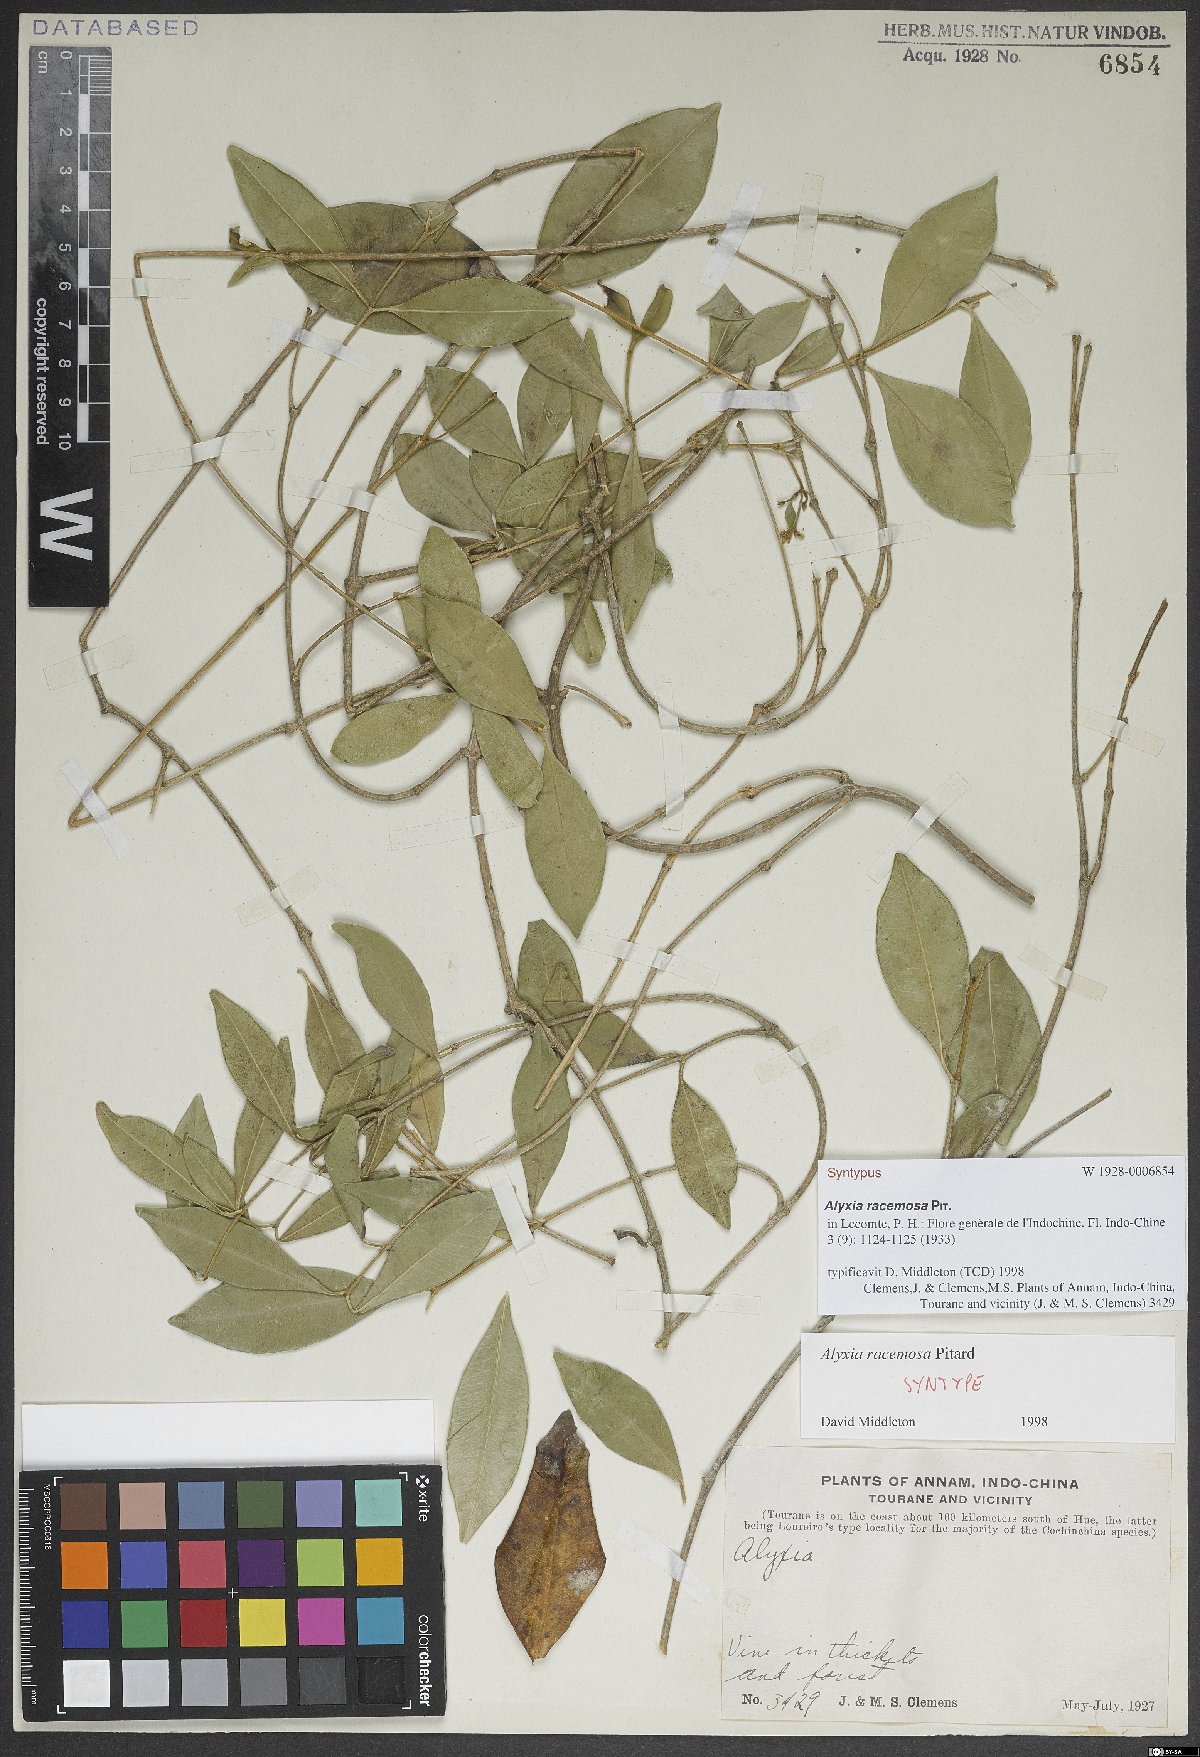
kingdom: Plantae
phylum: Tracheophyta
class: Magnoliopsida
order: Gentianales
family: Apocynaceae
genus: Alyxia
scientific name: Alyxia racemosa
